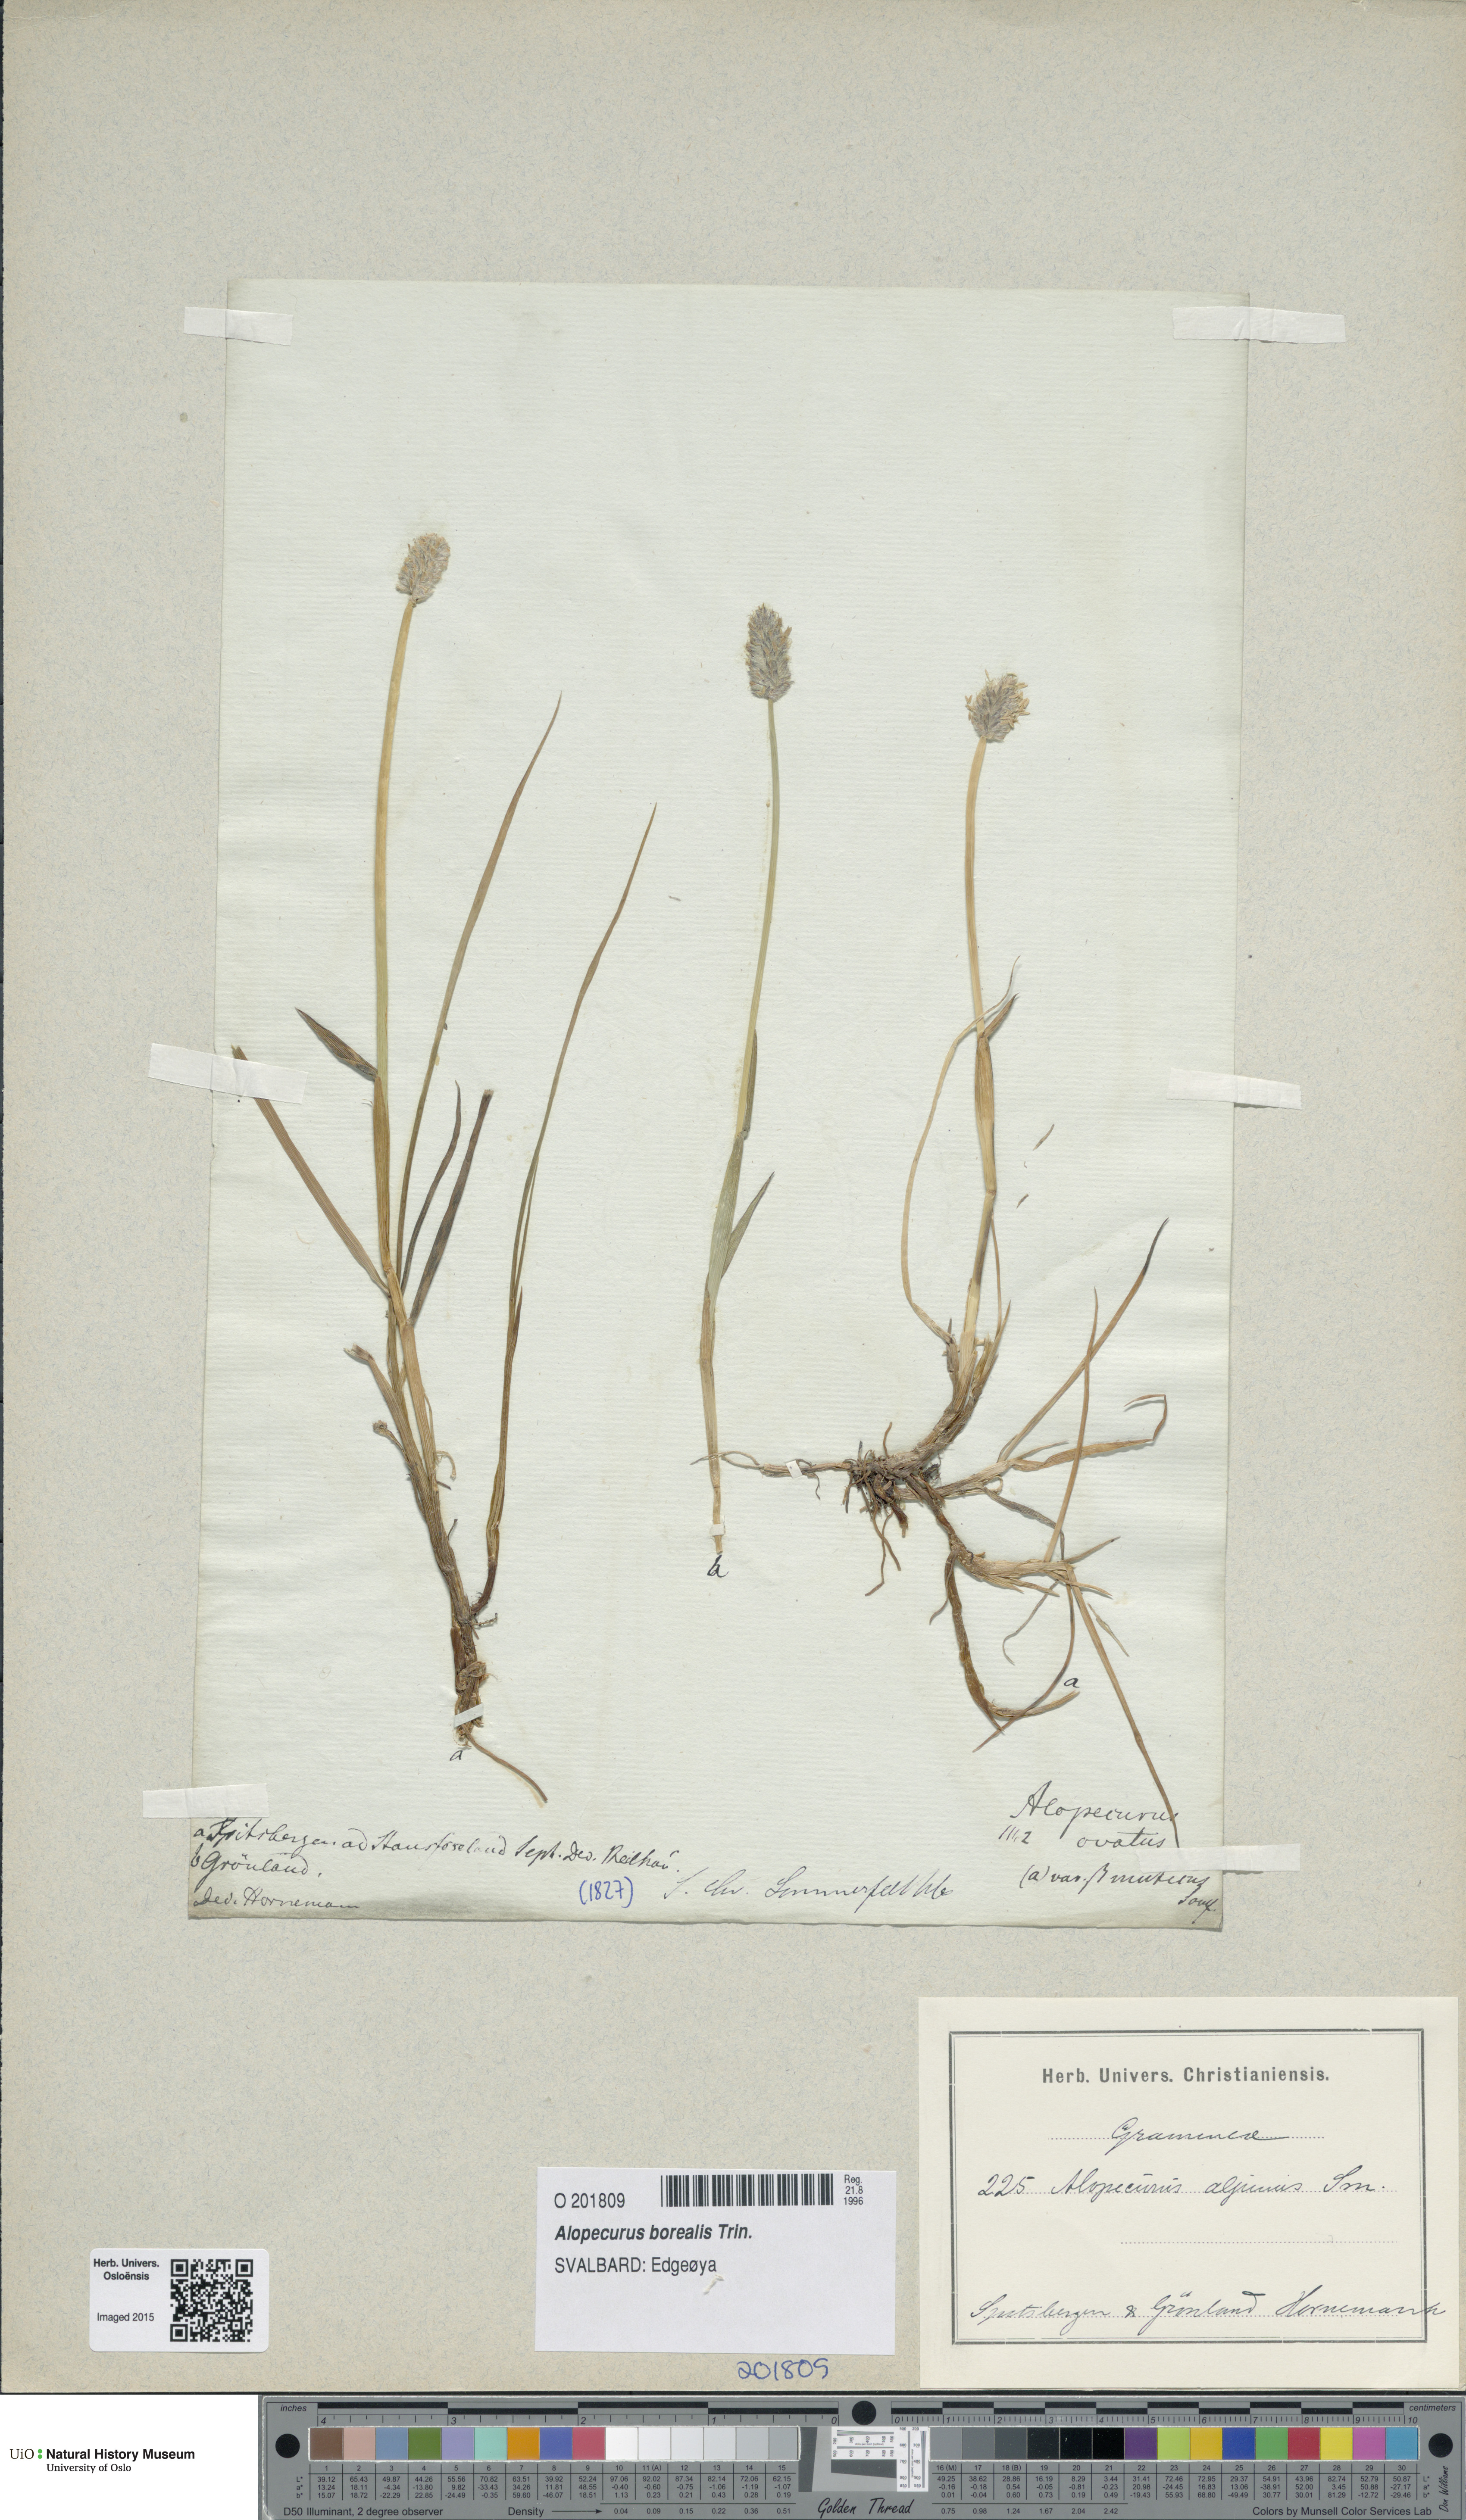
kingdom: Plantae
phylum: Tracheophyta
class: Liliopsida
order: Poales
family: Poaceae
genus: Alopecurus
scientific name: Alopecurus magellanicus
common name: Alpine foxtail
